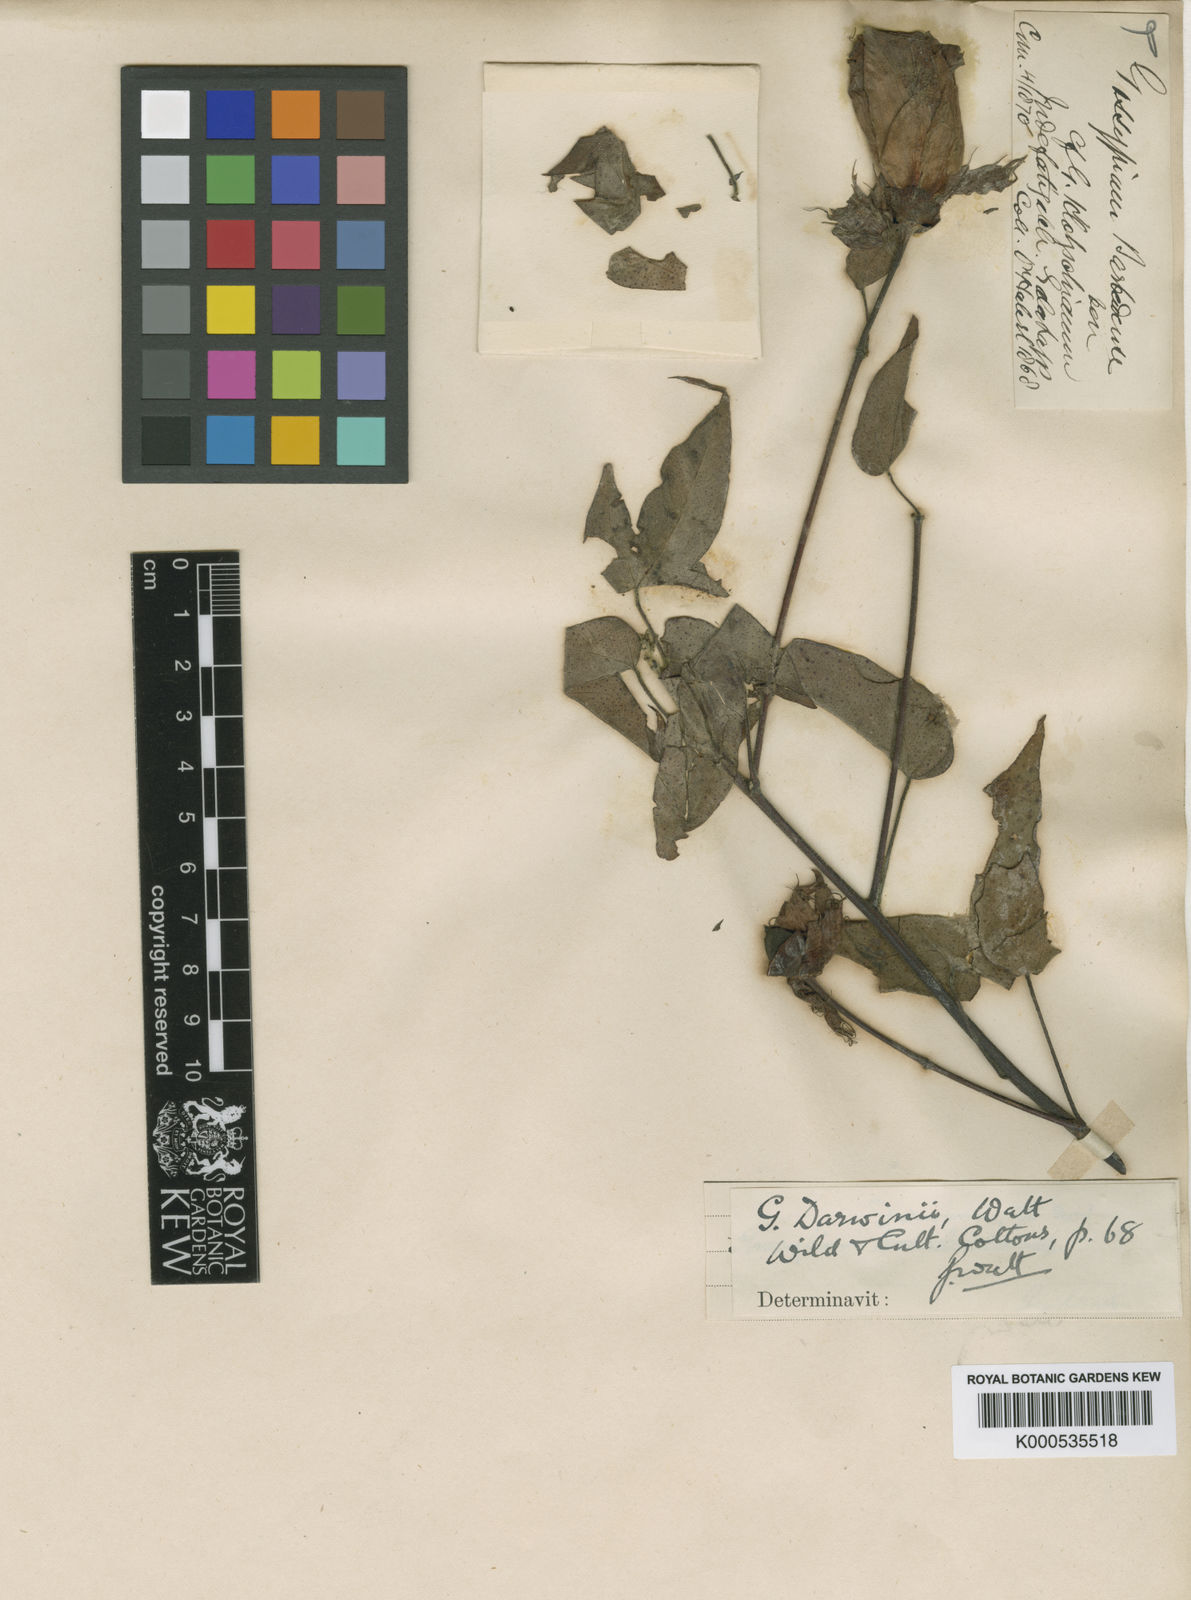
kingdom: Plantae
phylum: Tracheophyta
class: Magnoliopsida
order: Malvales
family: Malvaceae
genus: Gossypium
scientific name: Gossypium barbadense
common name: Creole cotton
